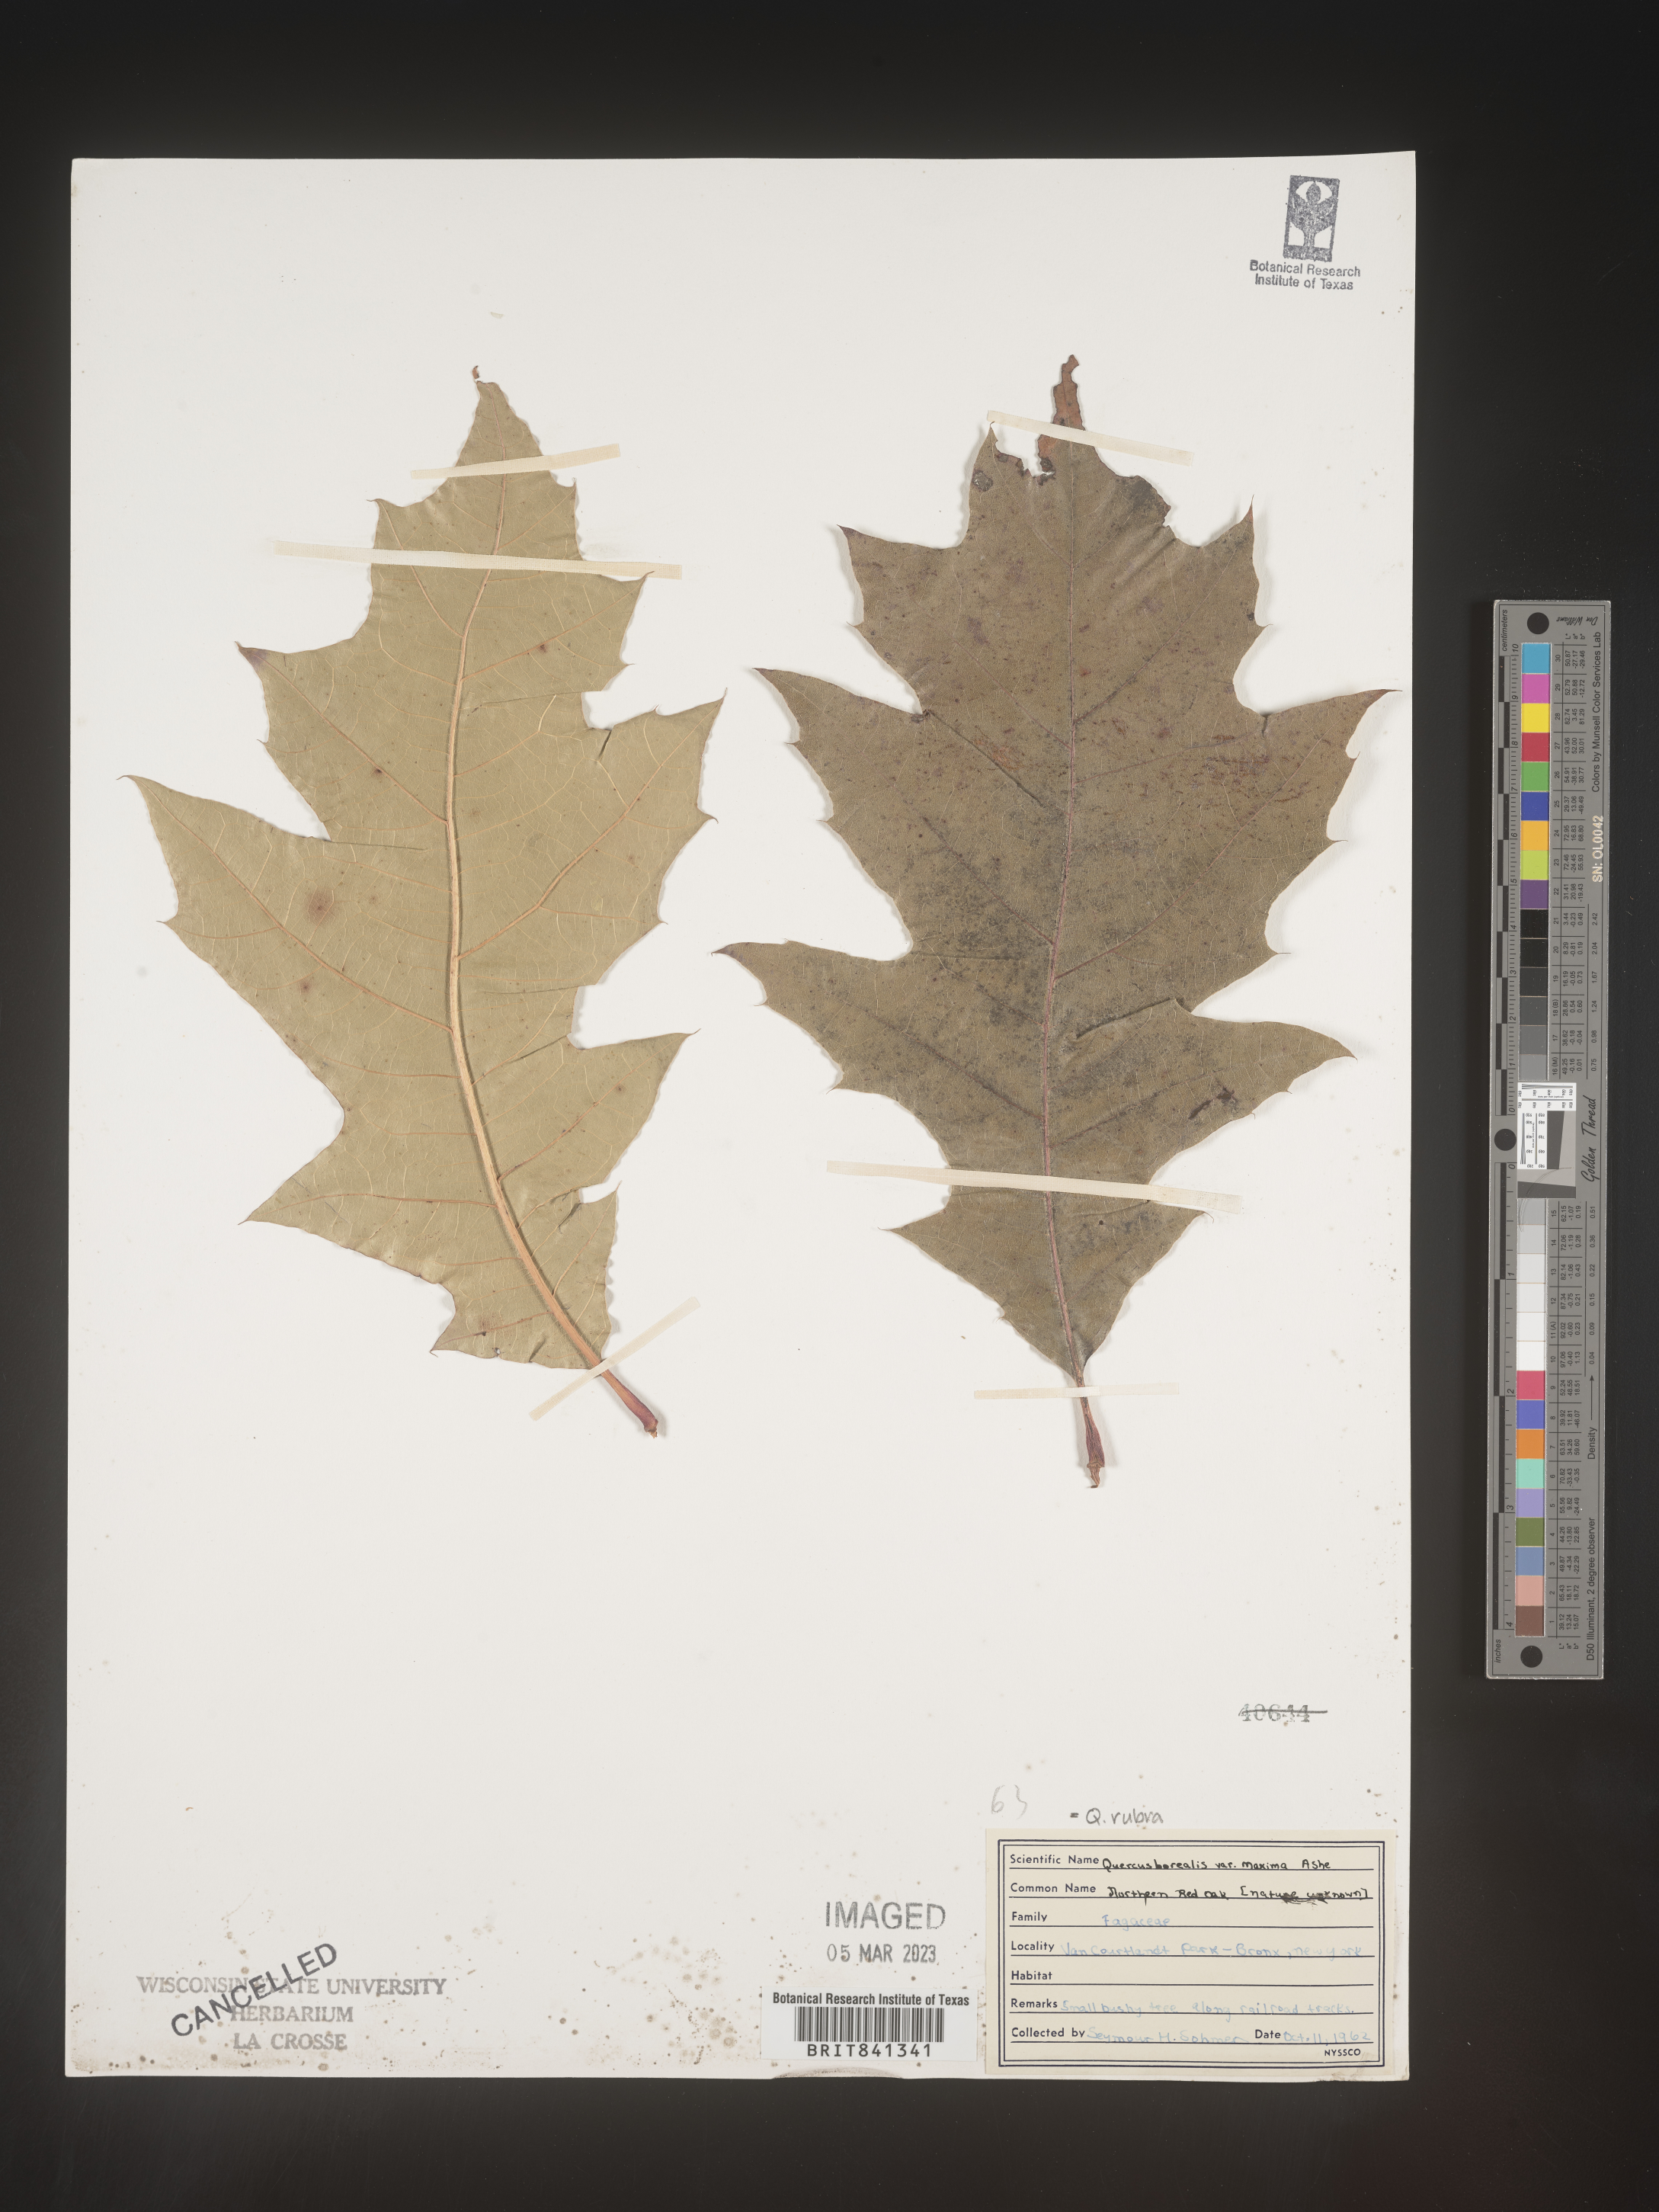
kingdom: Plantae
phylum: Tracheophyta
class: Magnoliopsida
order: Fagales
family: Fagaceae
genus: Quercus
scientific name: Quercus rubra
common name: Red oak
